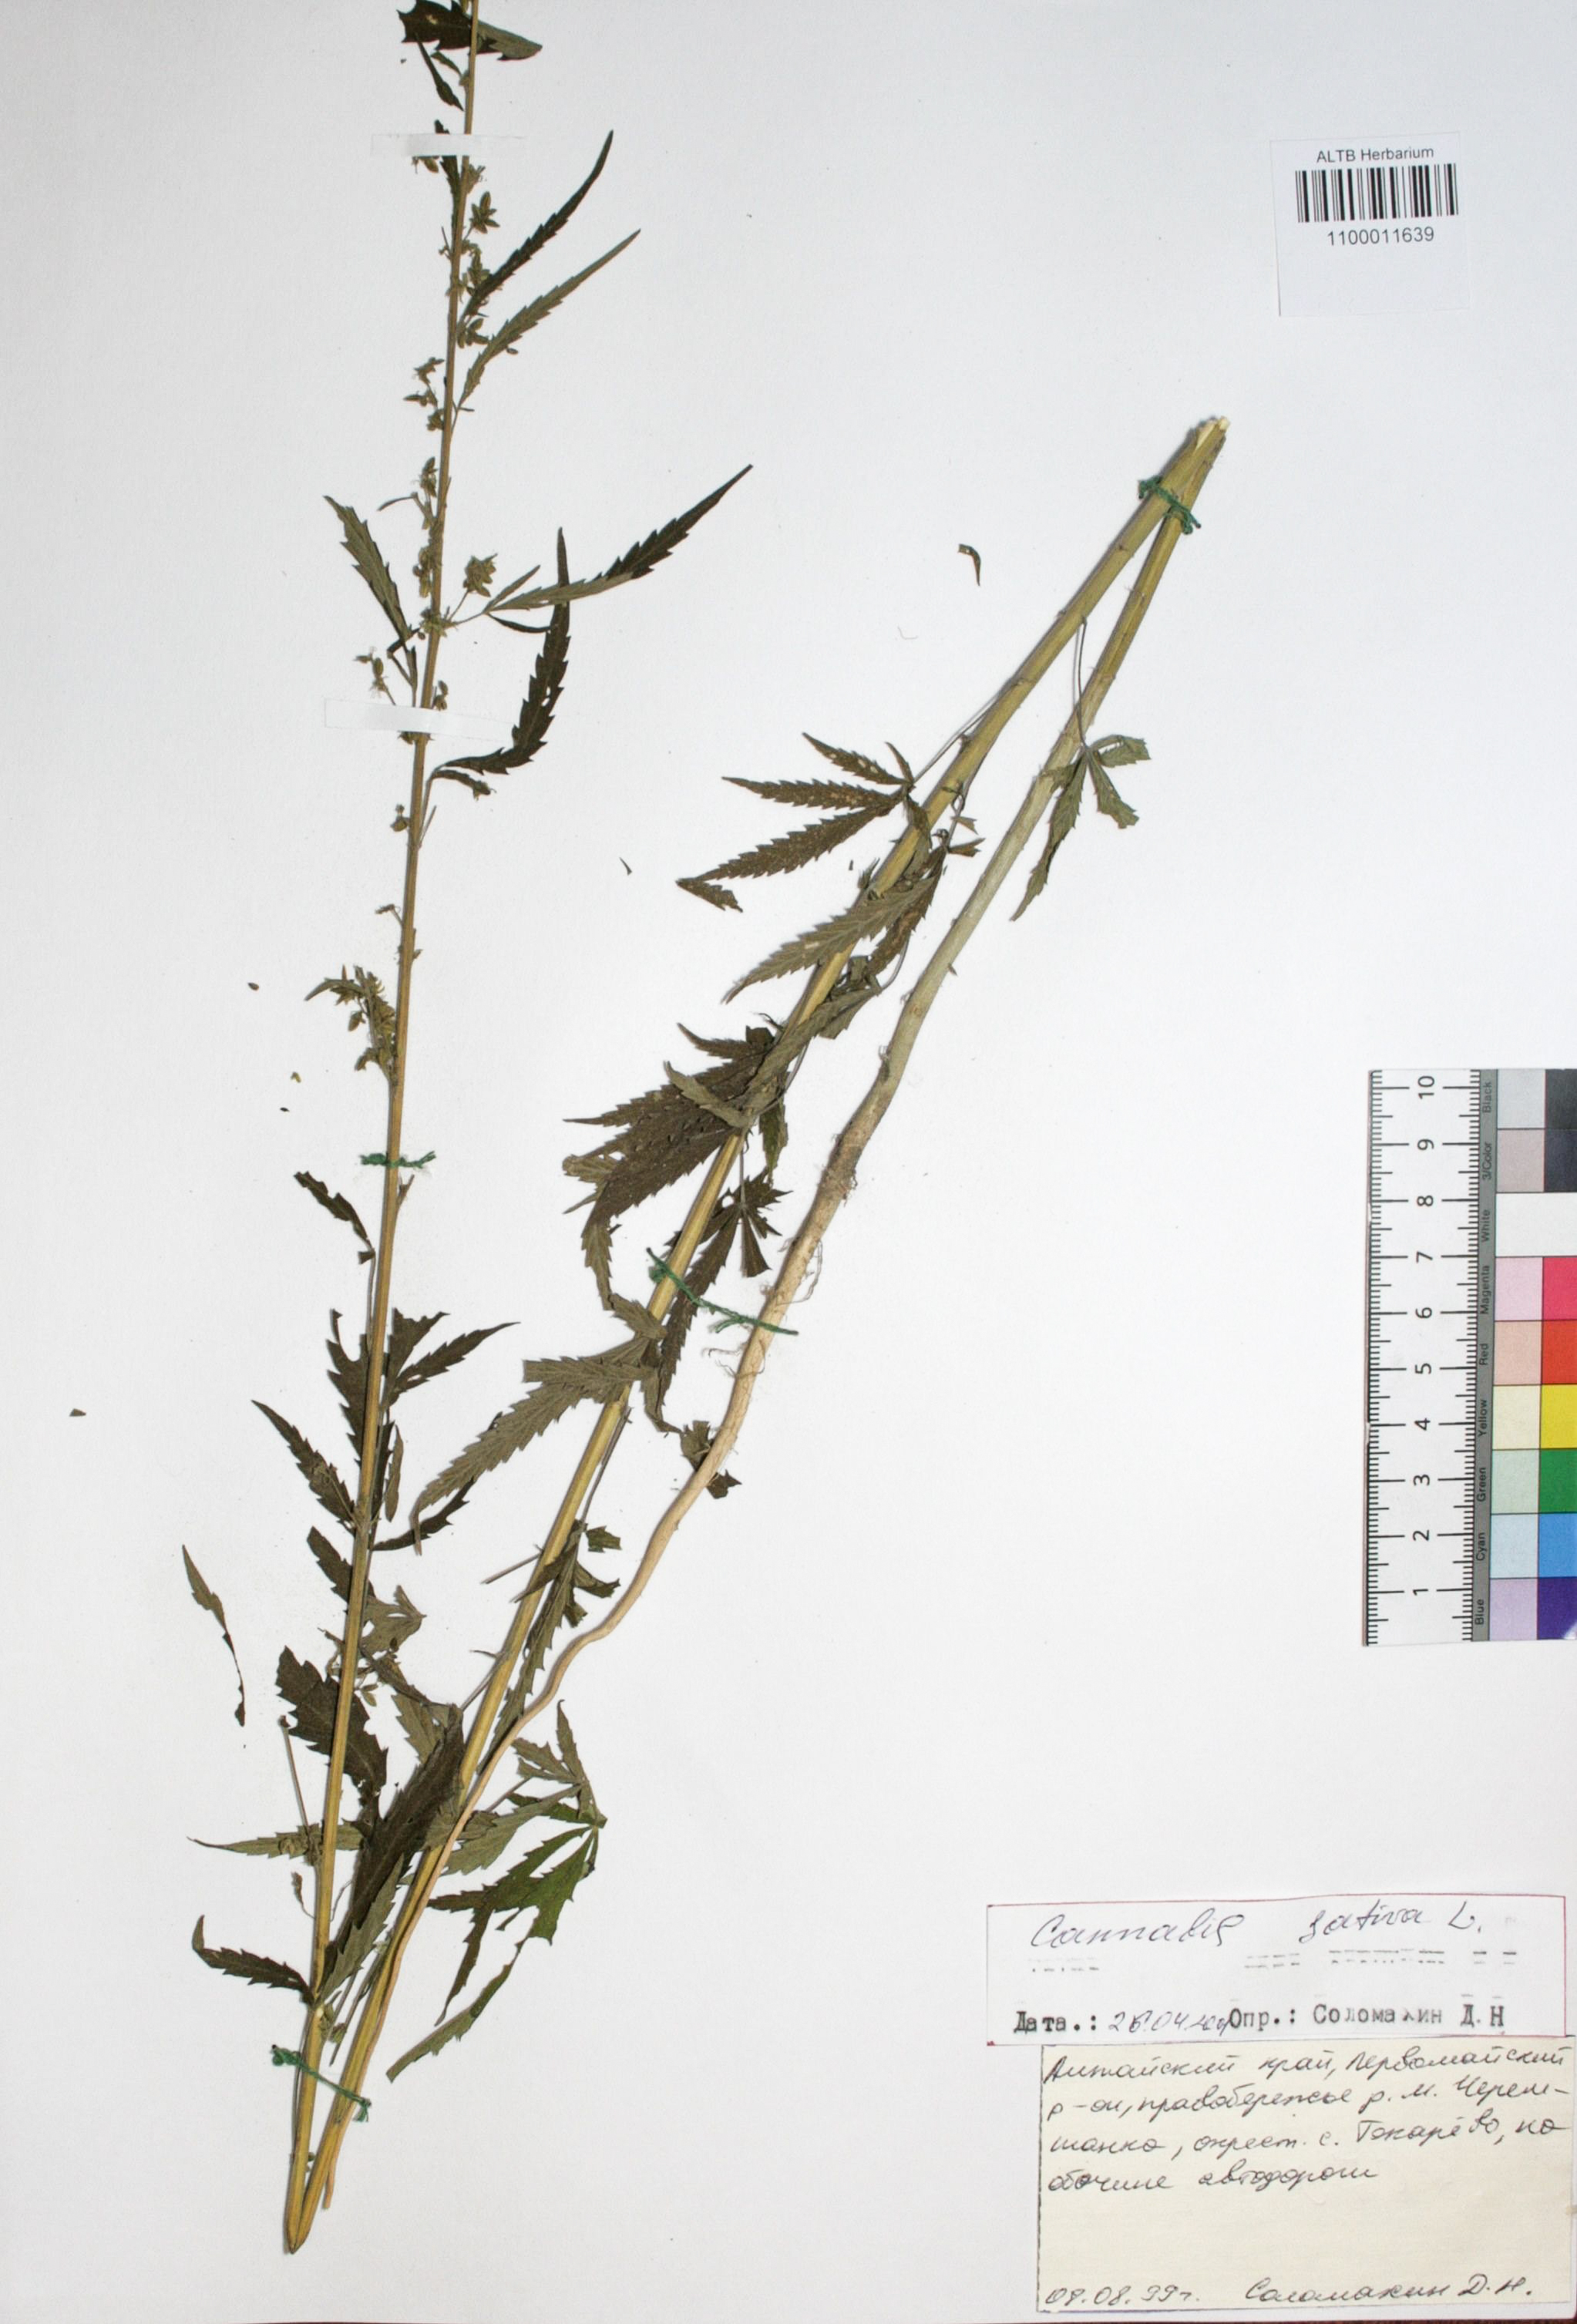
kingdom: Plantae
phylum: Tracheophyta
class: Magnoliopsida
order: Rosales
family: Cannabaceae
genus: Cannabis
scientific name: Cannabis sativa
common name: Hemp
